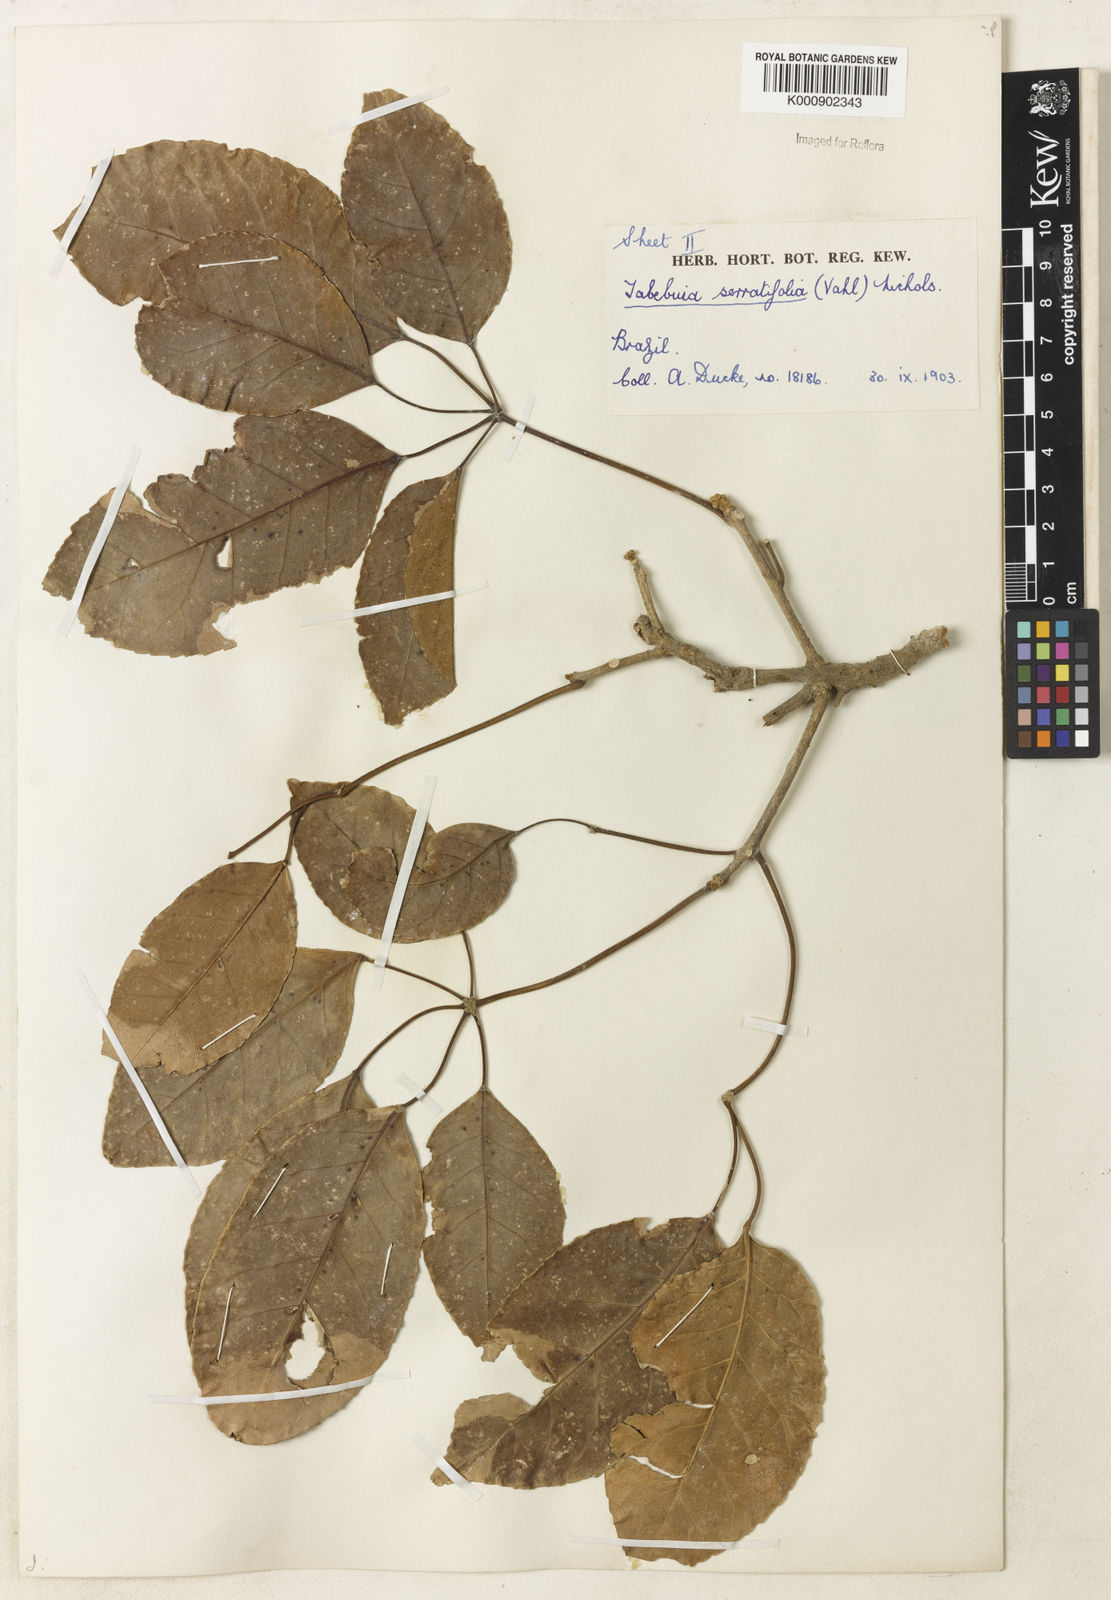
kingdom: Plantae
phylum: Tracheophyta
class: Magnoliopsida
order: Lamiales
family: Bignoniaceae
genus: Handroanthus
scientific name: Handroanthus serratifolius
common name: Yellow ipe
